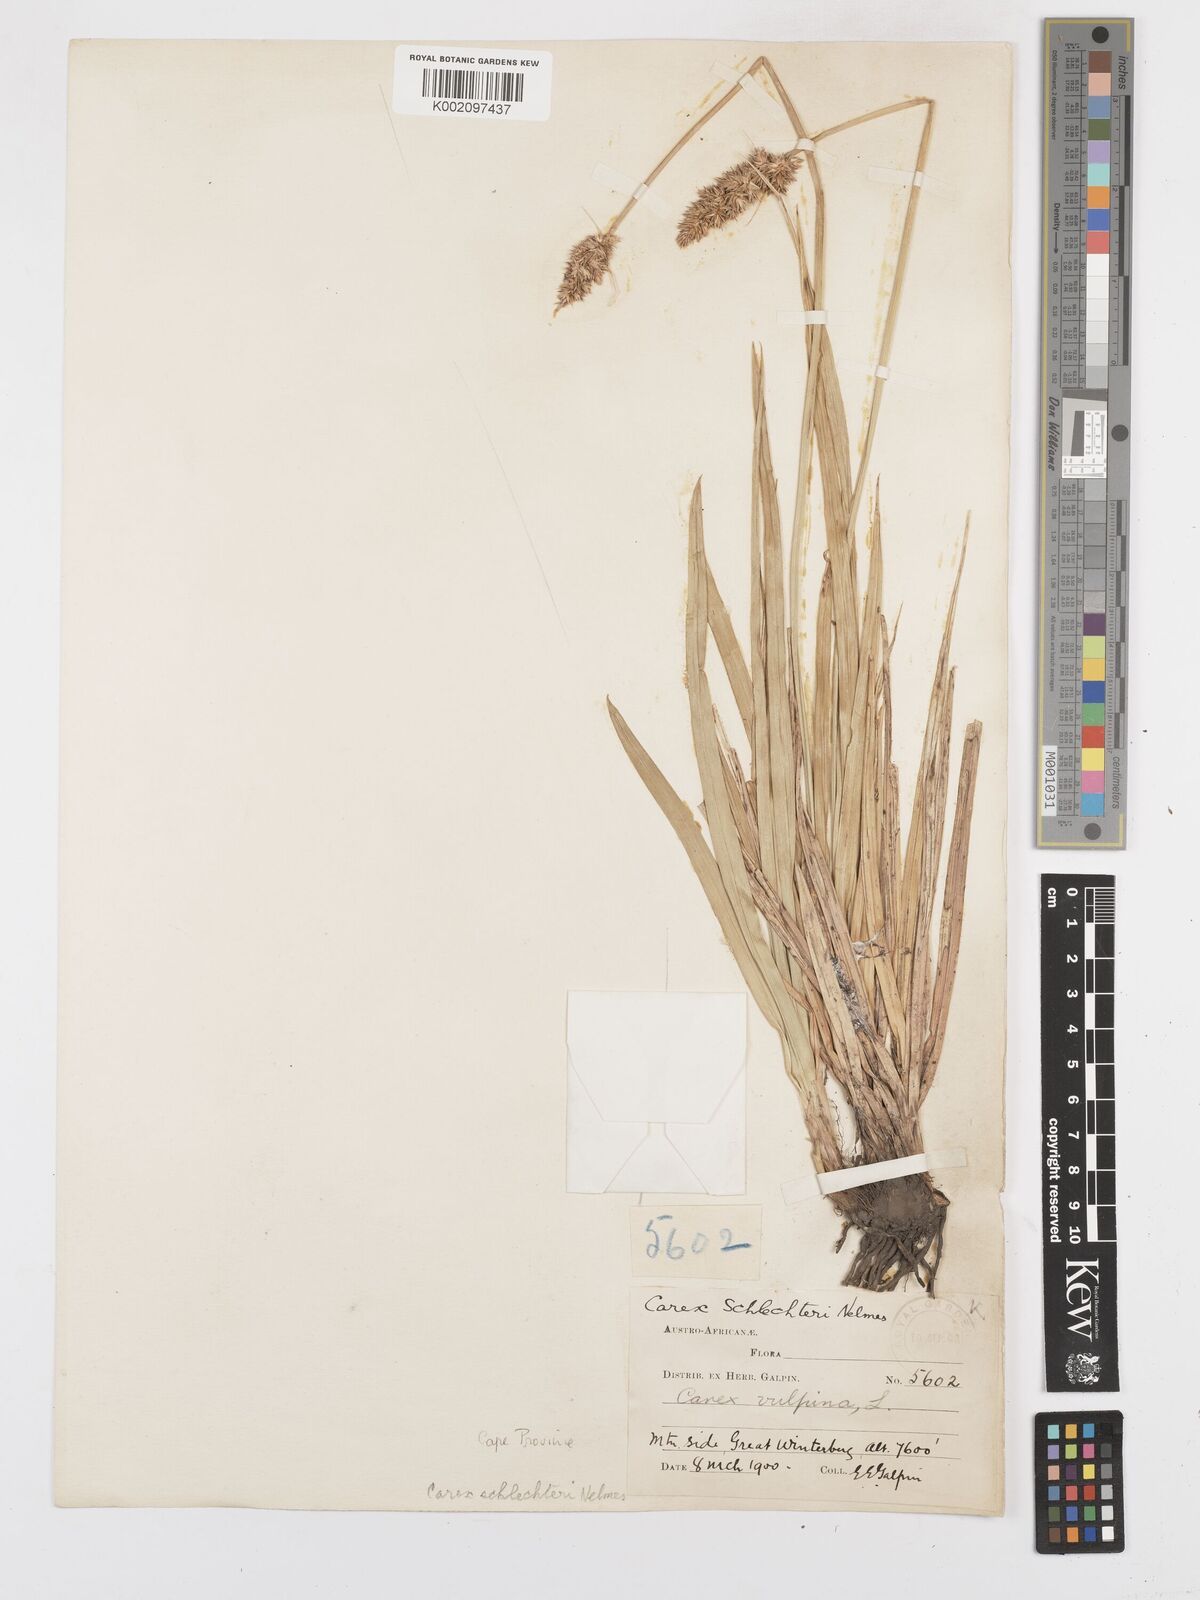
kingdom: Plantae
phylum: Tracheophyta
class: Liliopsida
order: Poales
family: Cyperaceae
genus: Carex
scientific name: Carex glomerata
